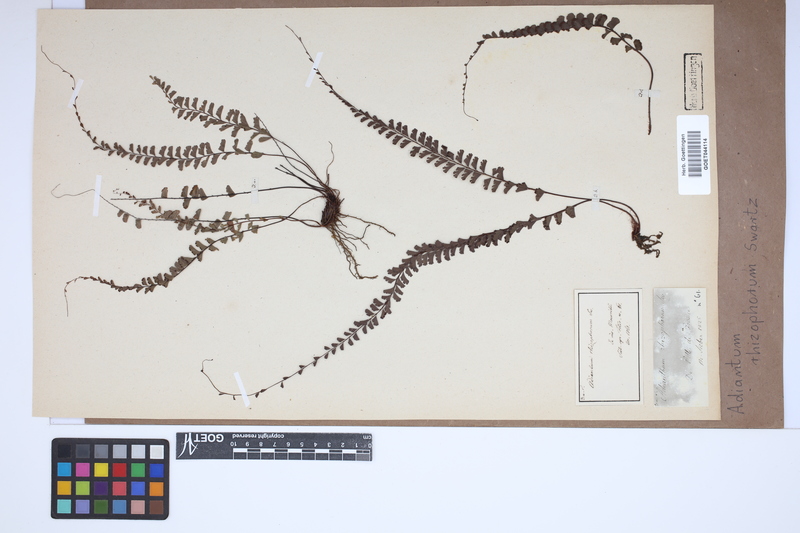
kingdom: Plantae
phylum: Tracheophyta
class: Polypodiopsida
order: Polypodiales
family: Pteridaceae
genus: Adiantum
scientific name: Adiantum rhizophorum
